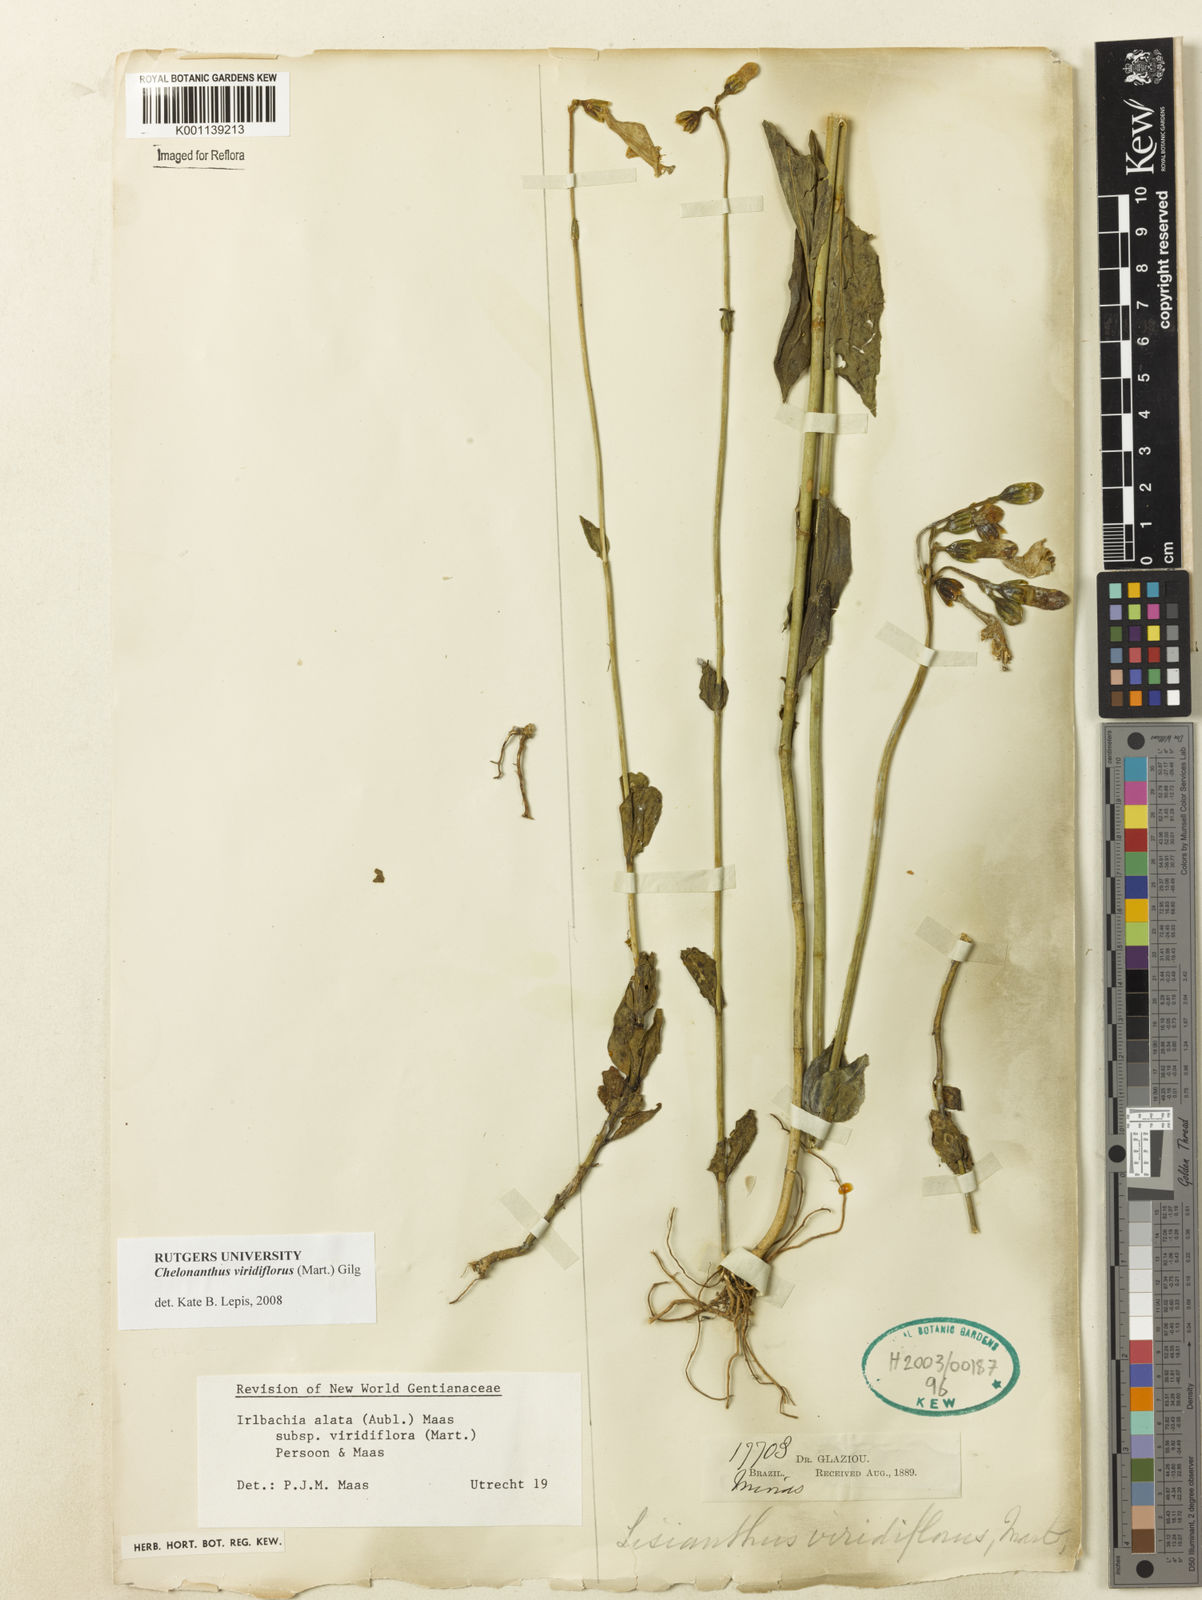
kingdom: Plantae
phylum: Tracheophyta
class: Magnoliopsida
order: Gentianales
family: Gentianaceae
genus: Chelonanthus
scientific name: Chelonanthus viridiflorus
